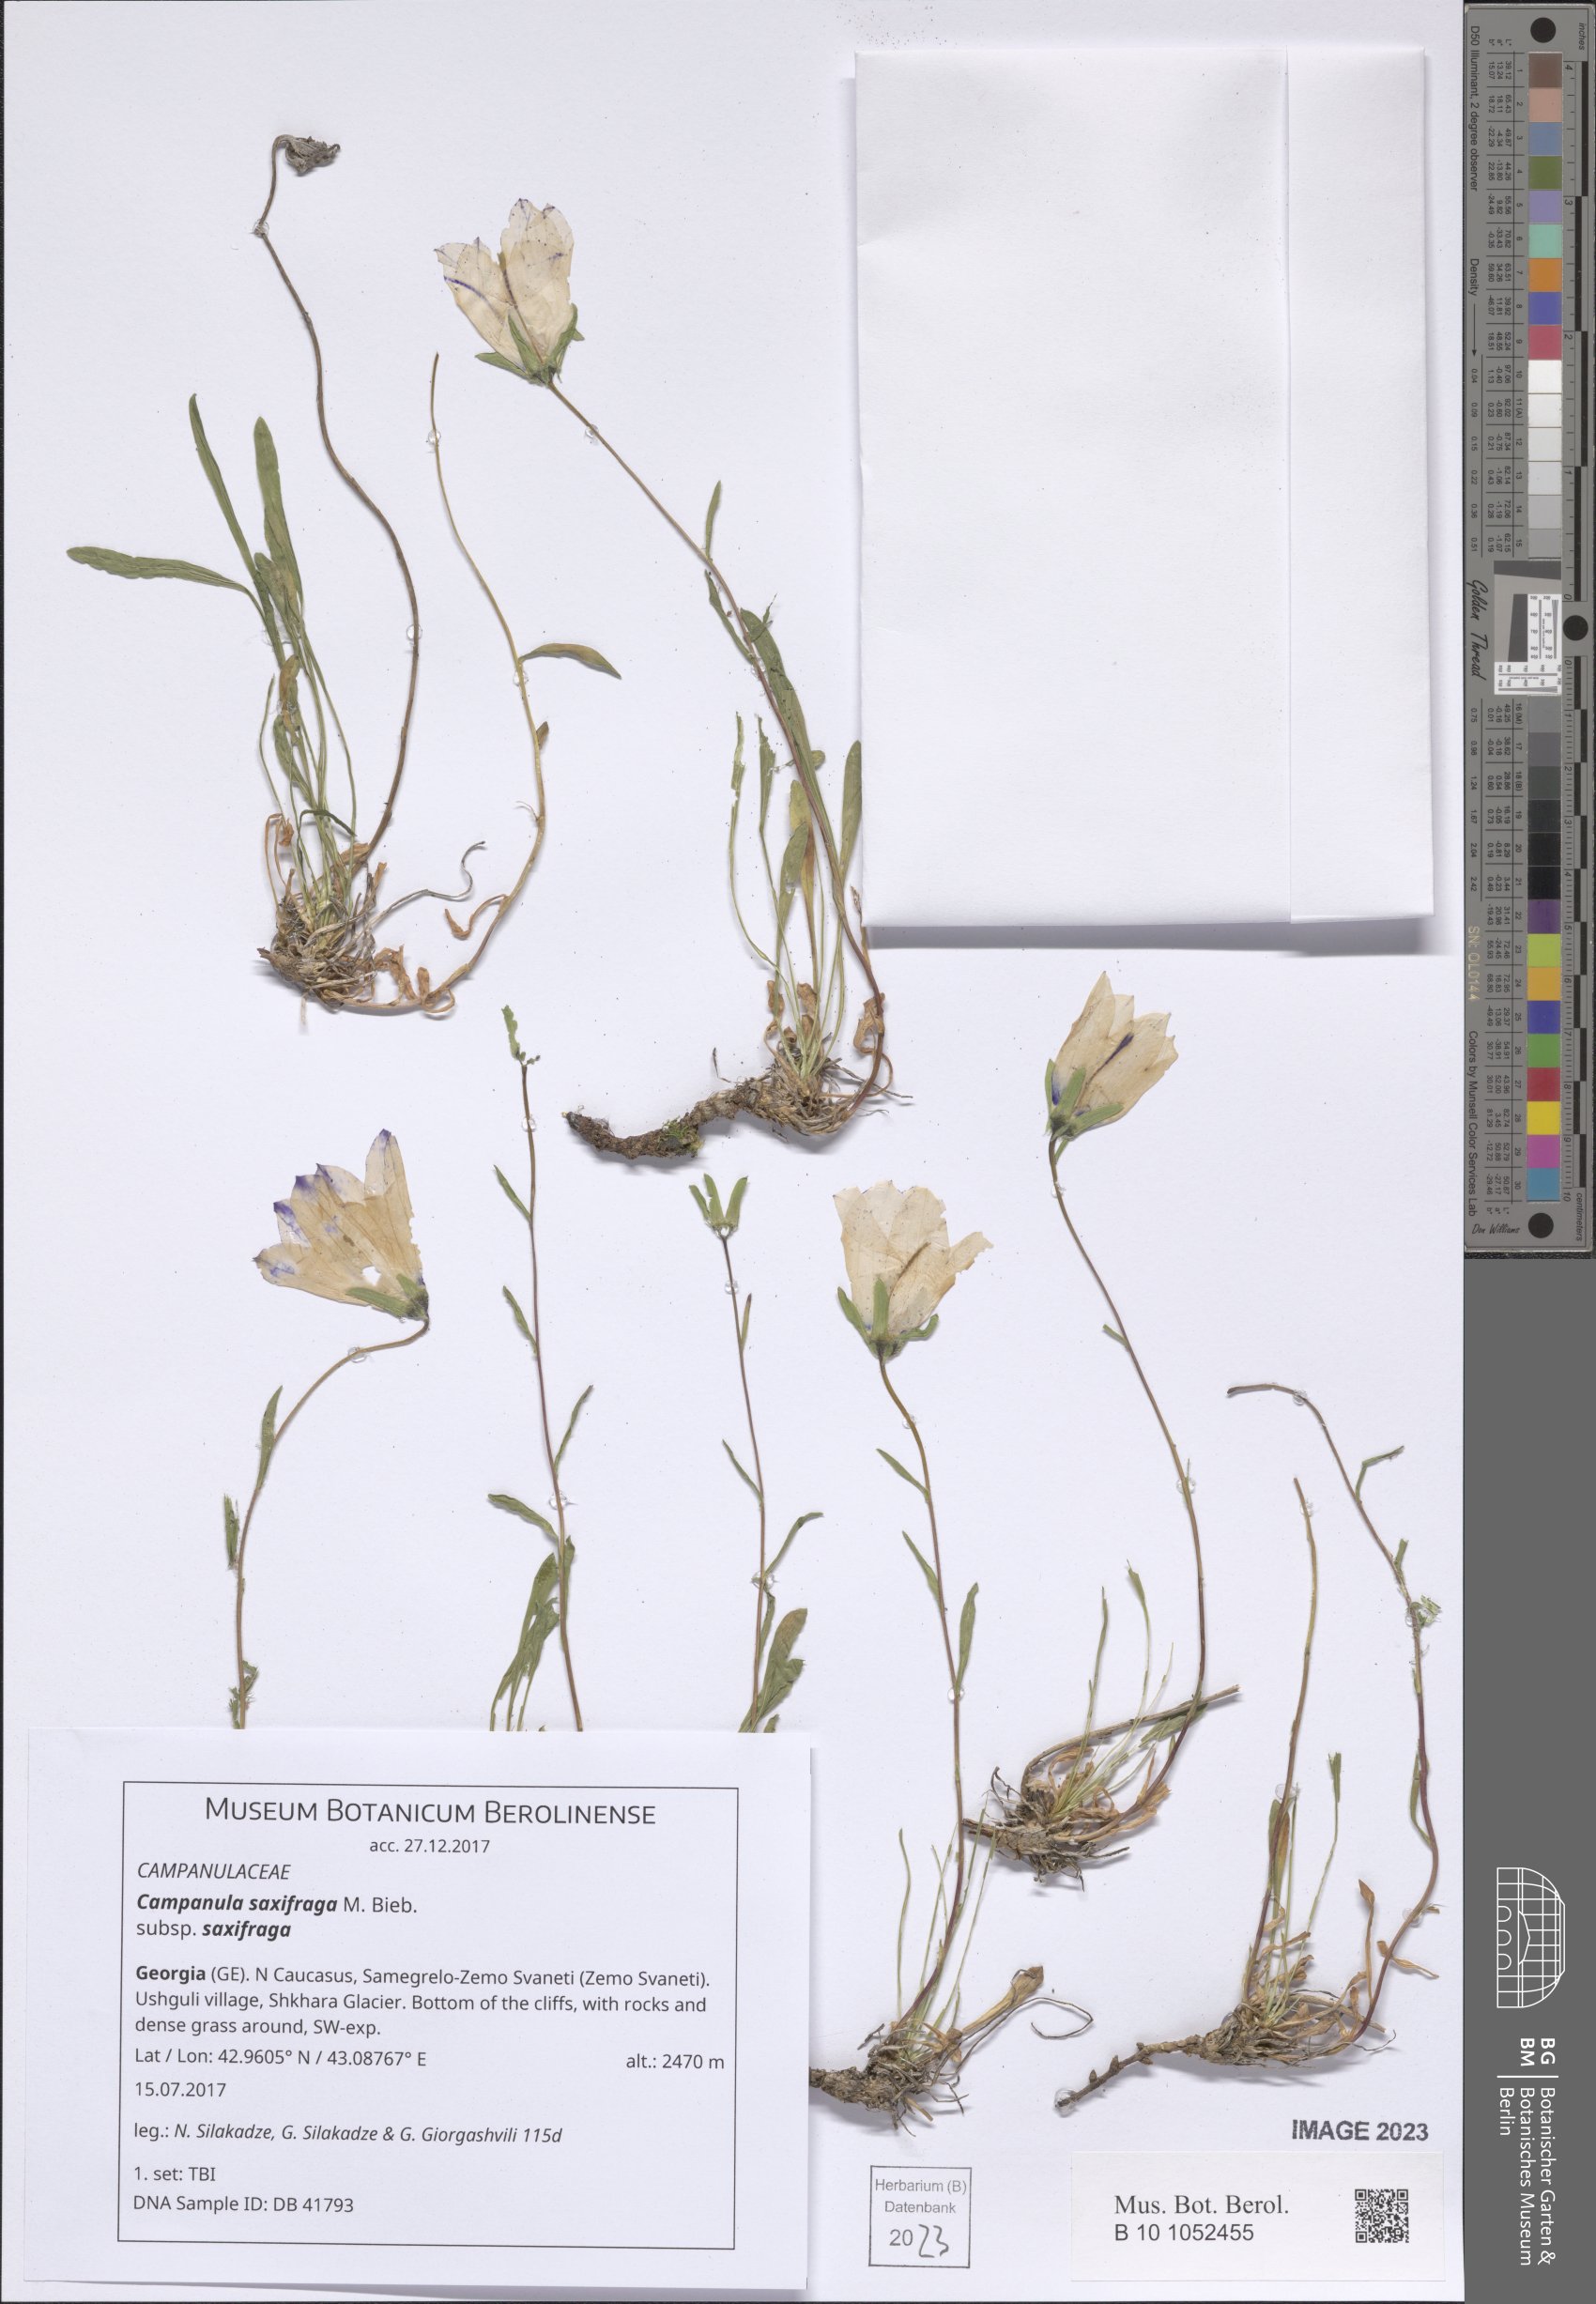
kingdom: Plantae
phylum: Tracheophyta
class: Magnoliopsida
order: Asterales
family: Campanulaceae
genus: Campanula
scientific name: Campanula saxifraga
